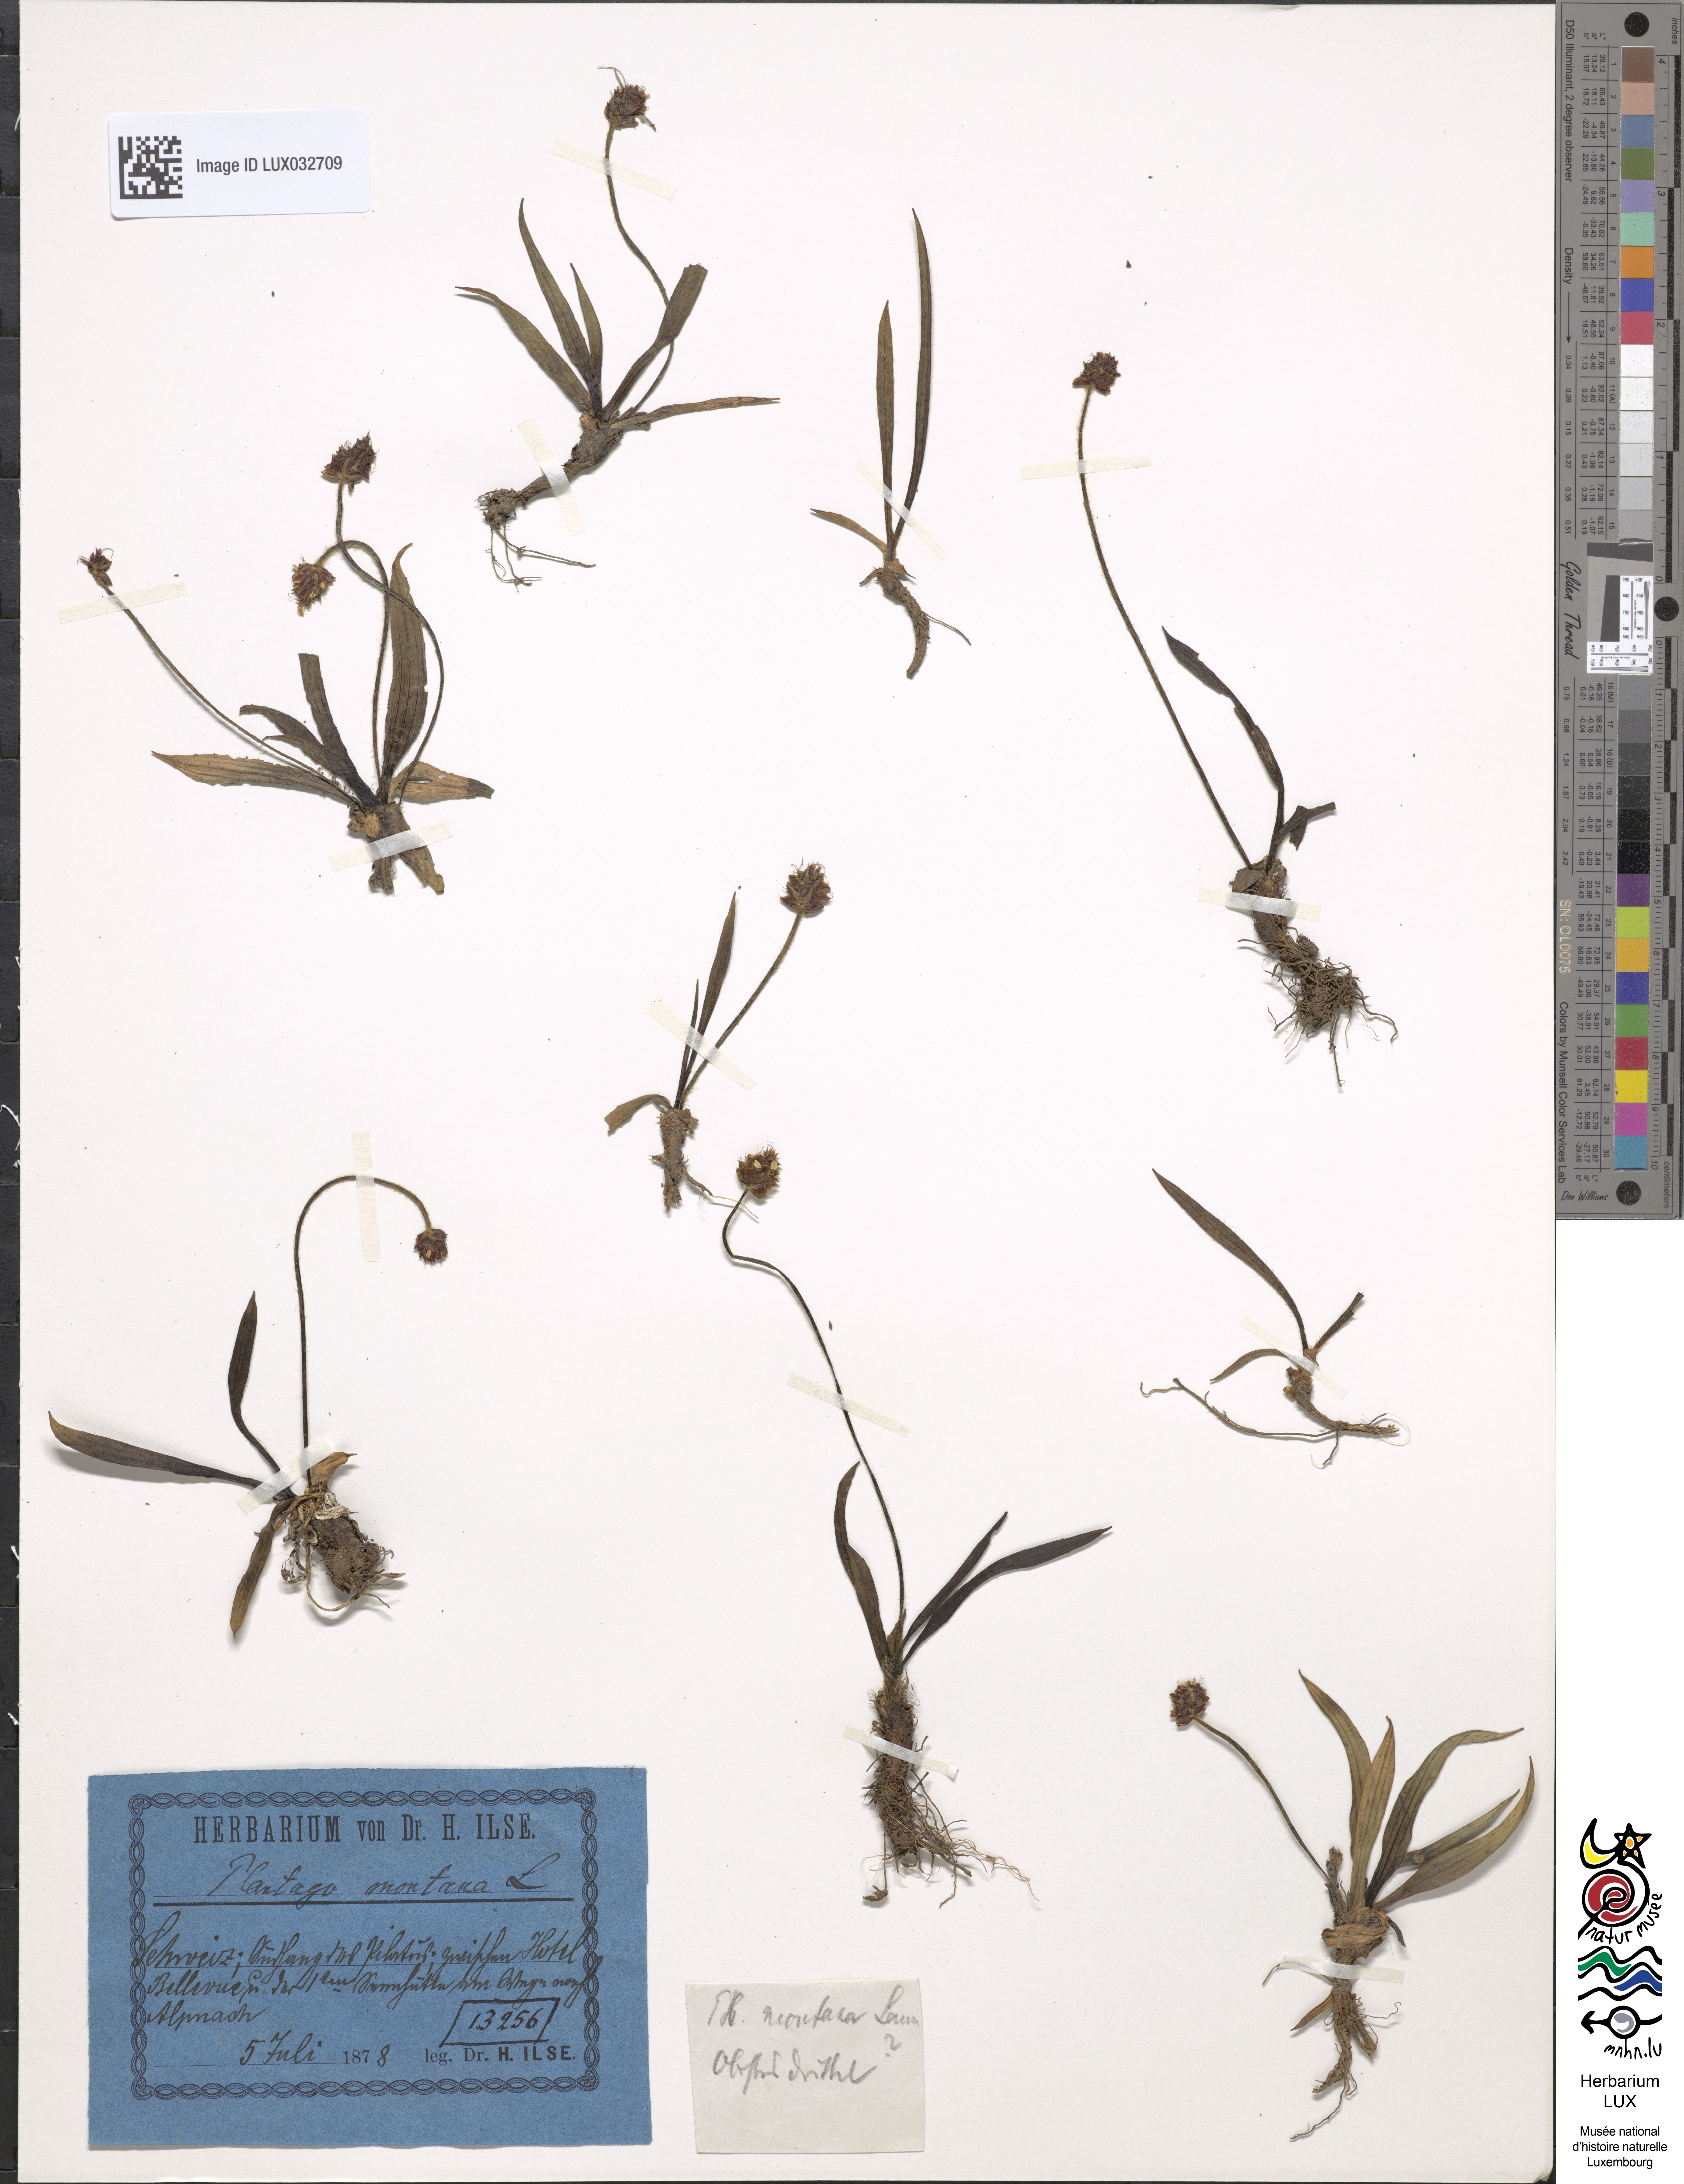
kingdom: Plantae
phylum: Tracheophyta
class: Magnoliopsida
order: Lamiales
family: Plantaginaceae
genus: Plantago
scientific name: Plantago atrata
